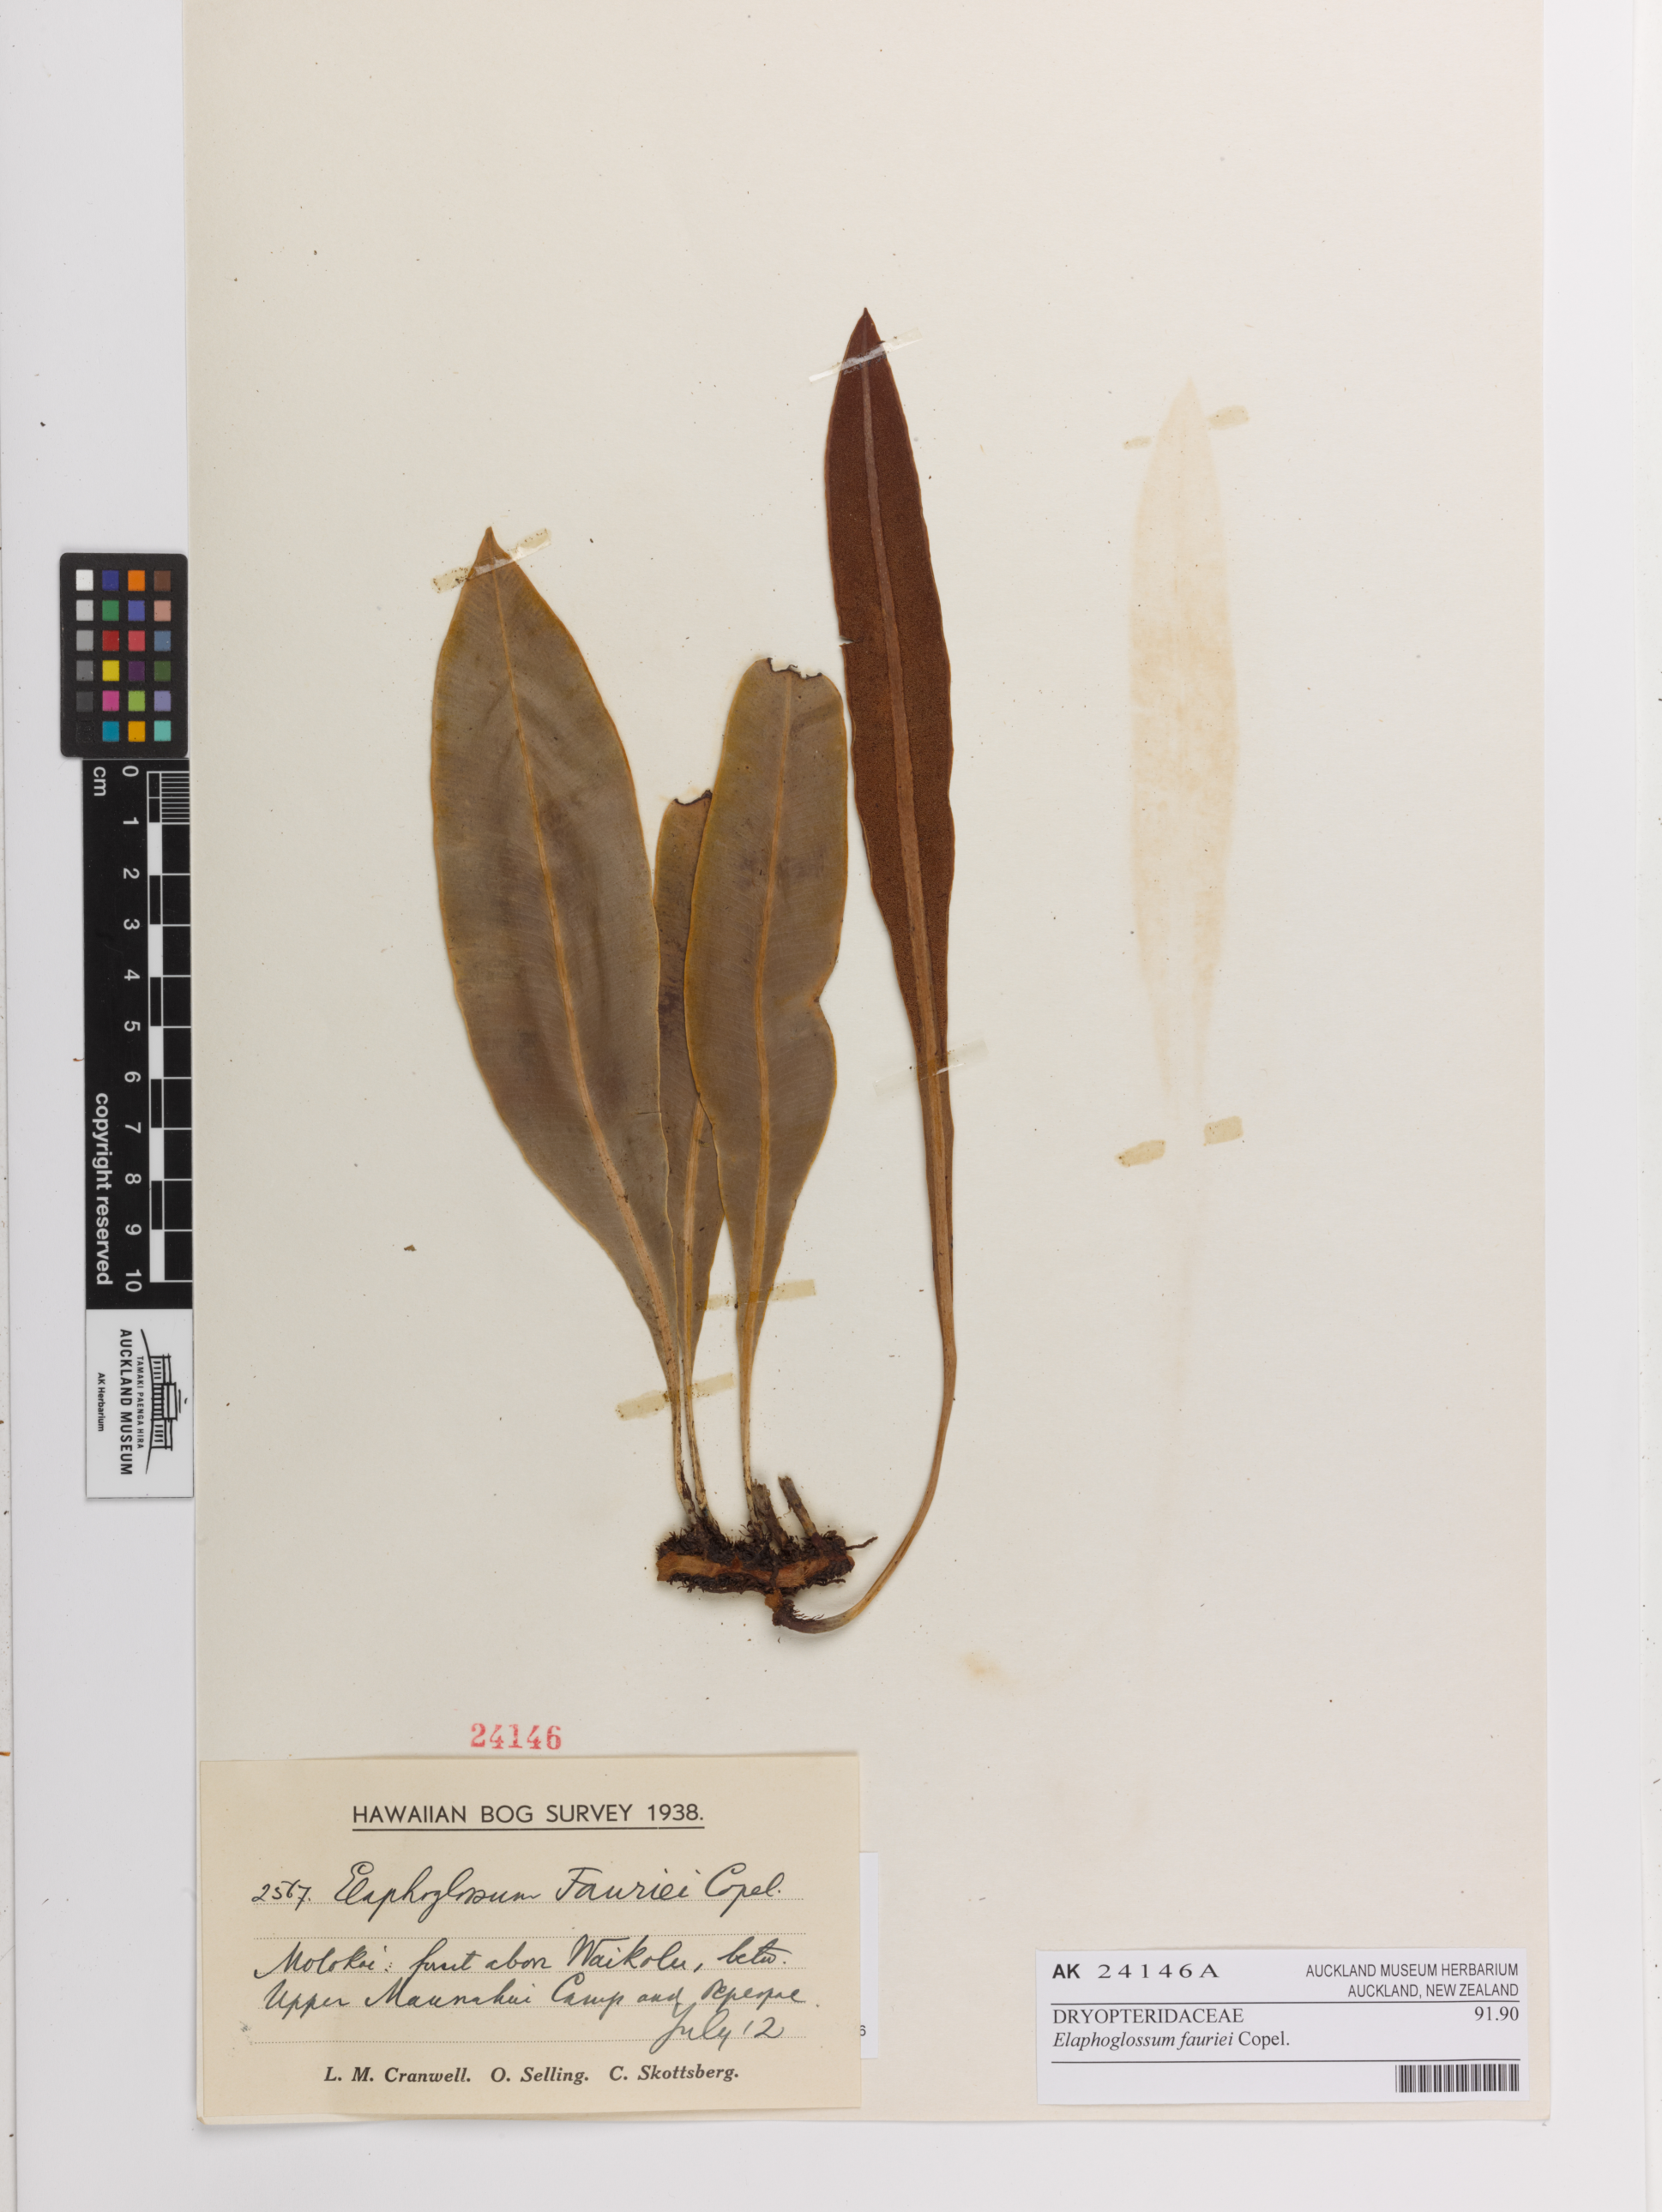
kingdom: Plantae
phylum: Tracheophyta
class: Polypodiopsida
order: Polypodiales
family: Dryopteridaceae
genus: Elaphoglossum
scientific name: Elaphoglossum fauriei
